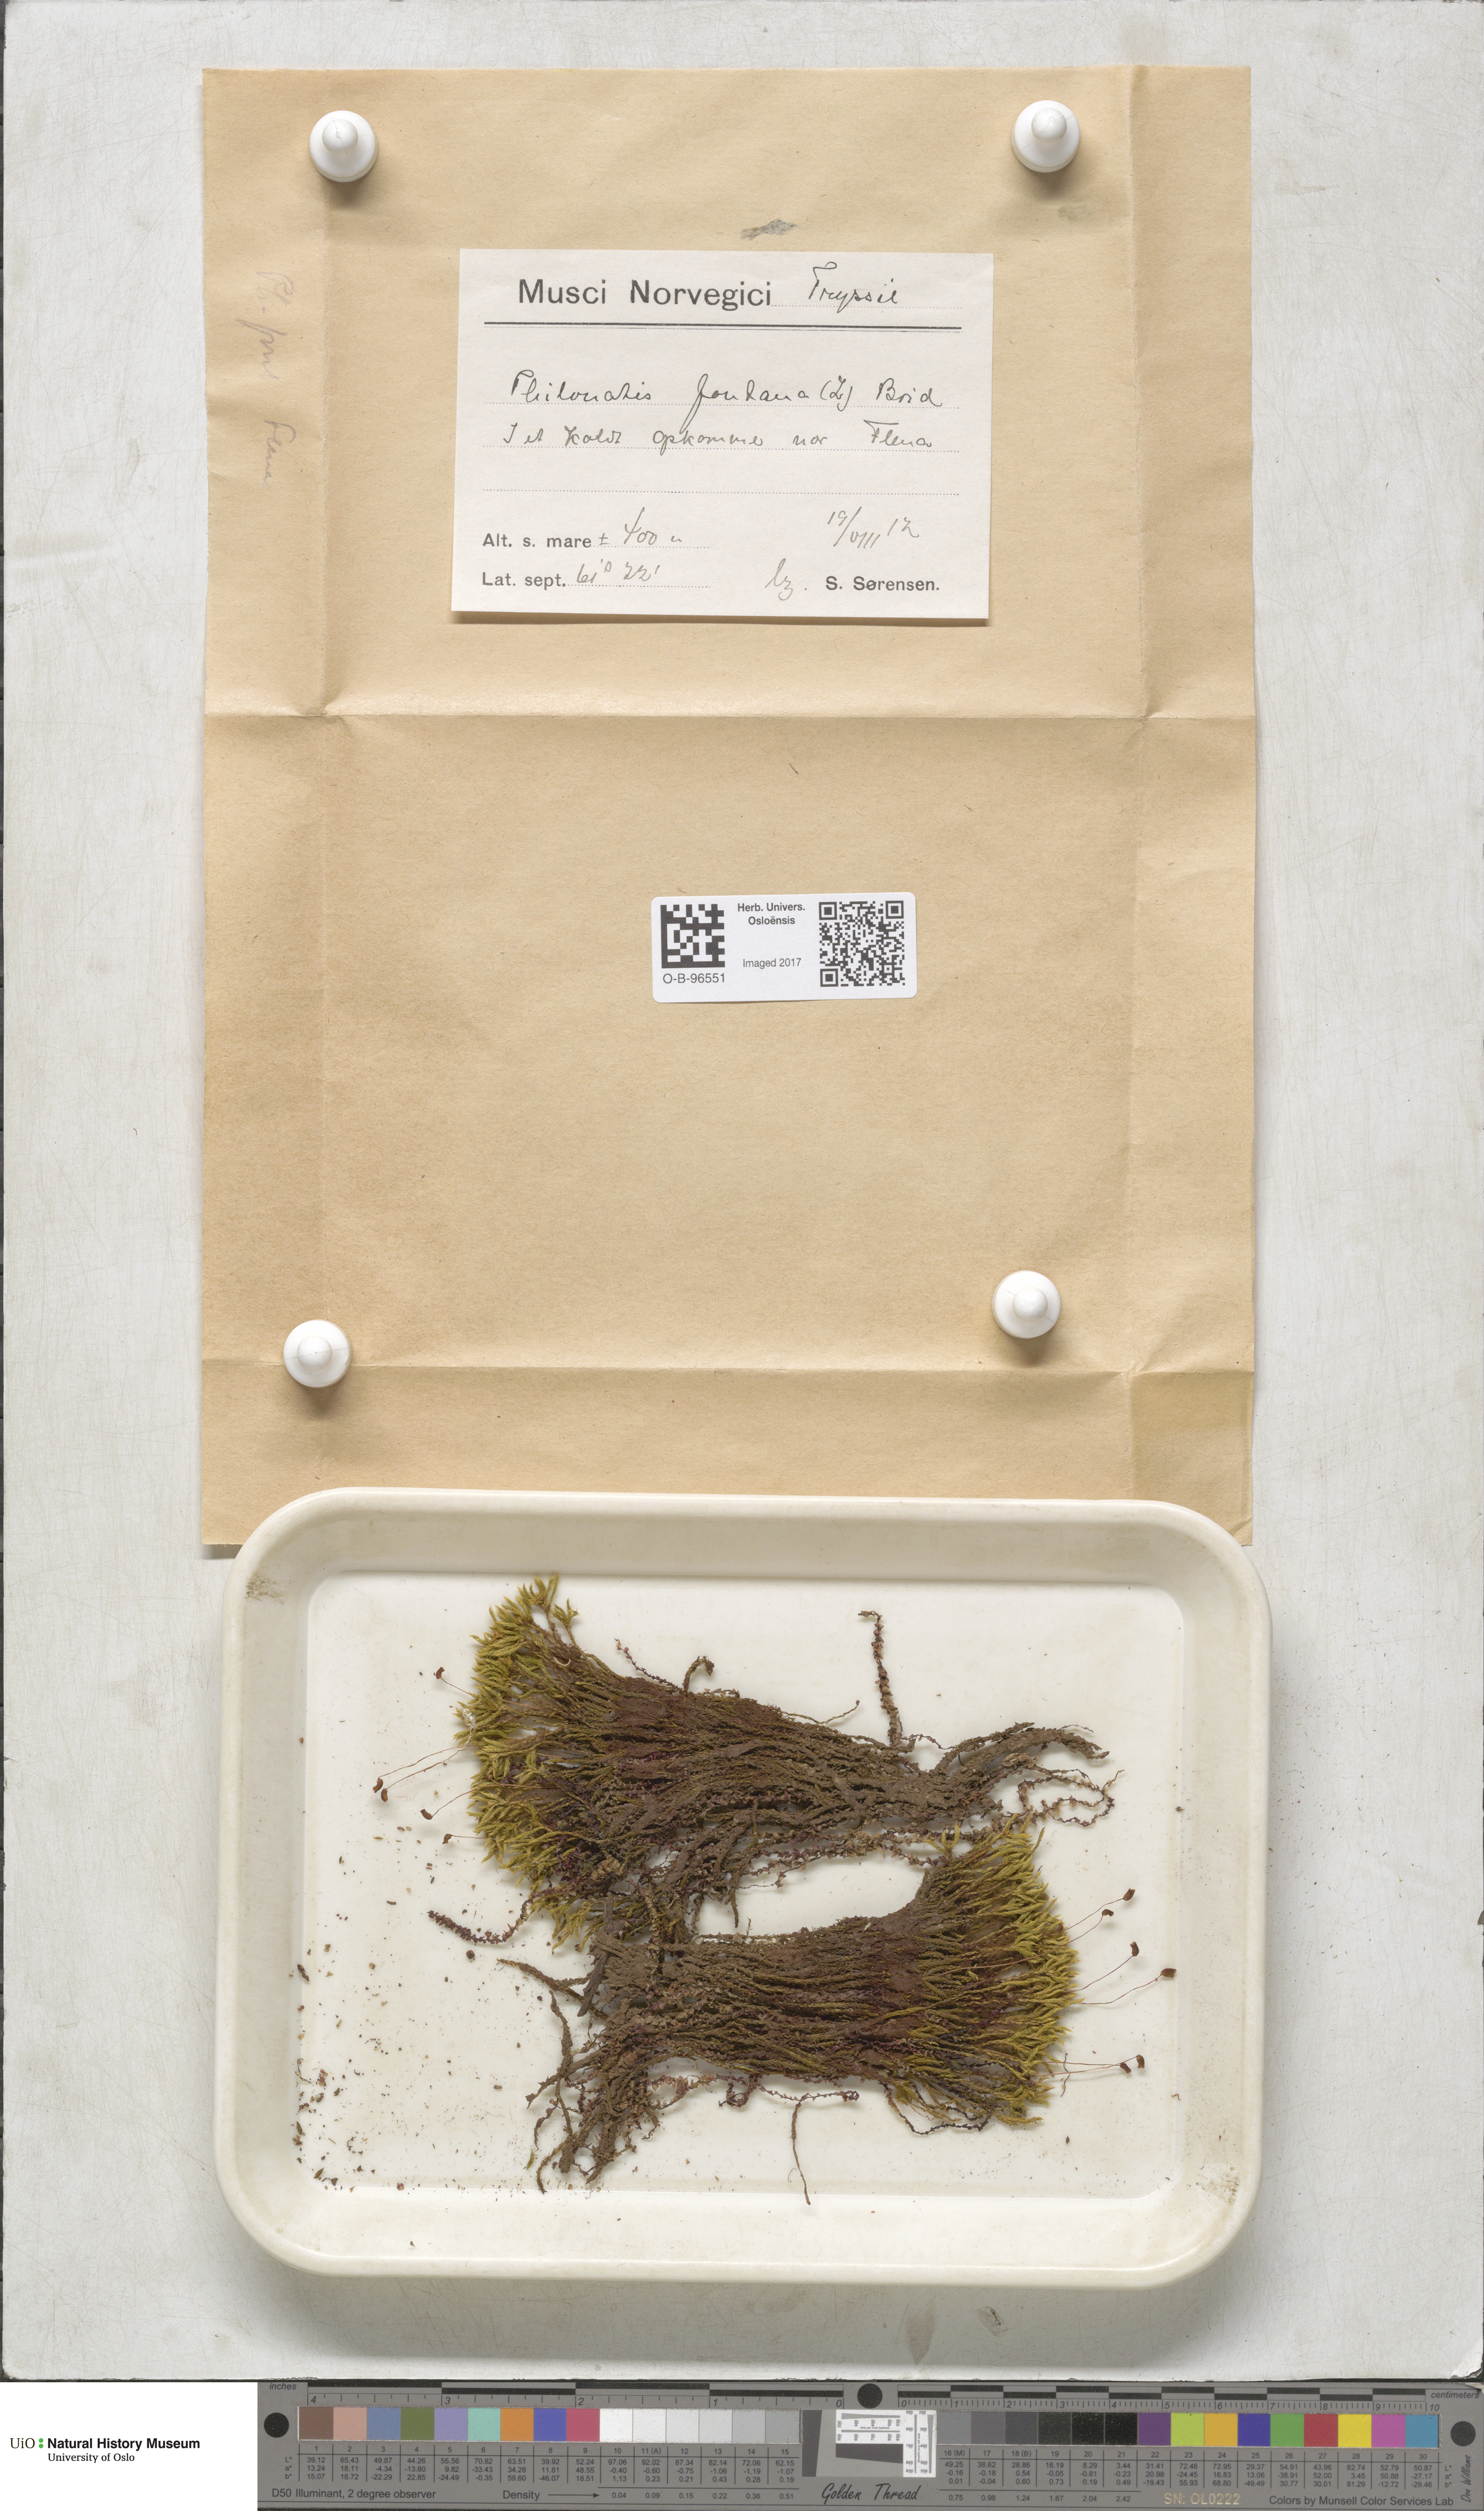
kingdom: Plantae
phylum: Bryophyta
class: Bryopsida
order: Bartramiales
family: Bartramiaceae
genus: Philonotis
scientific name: Philonotis fontana
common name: Fountain apple-moss
